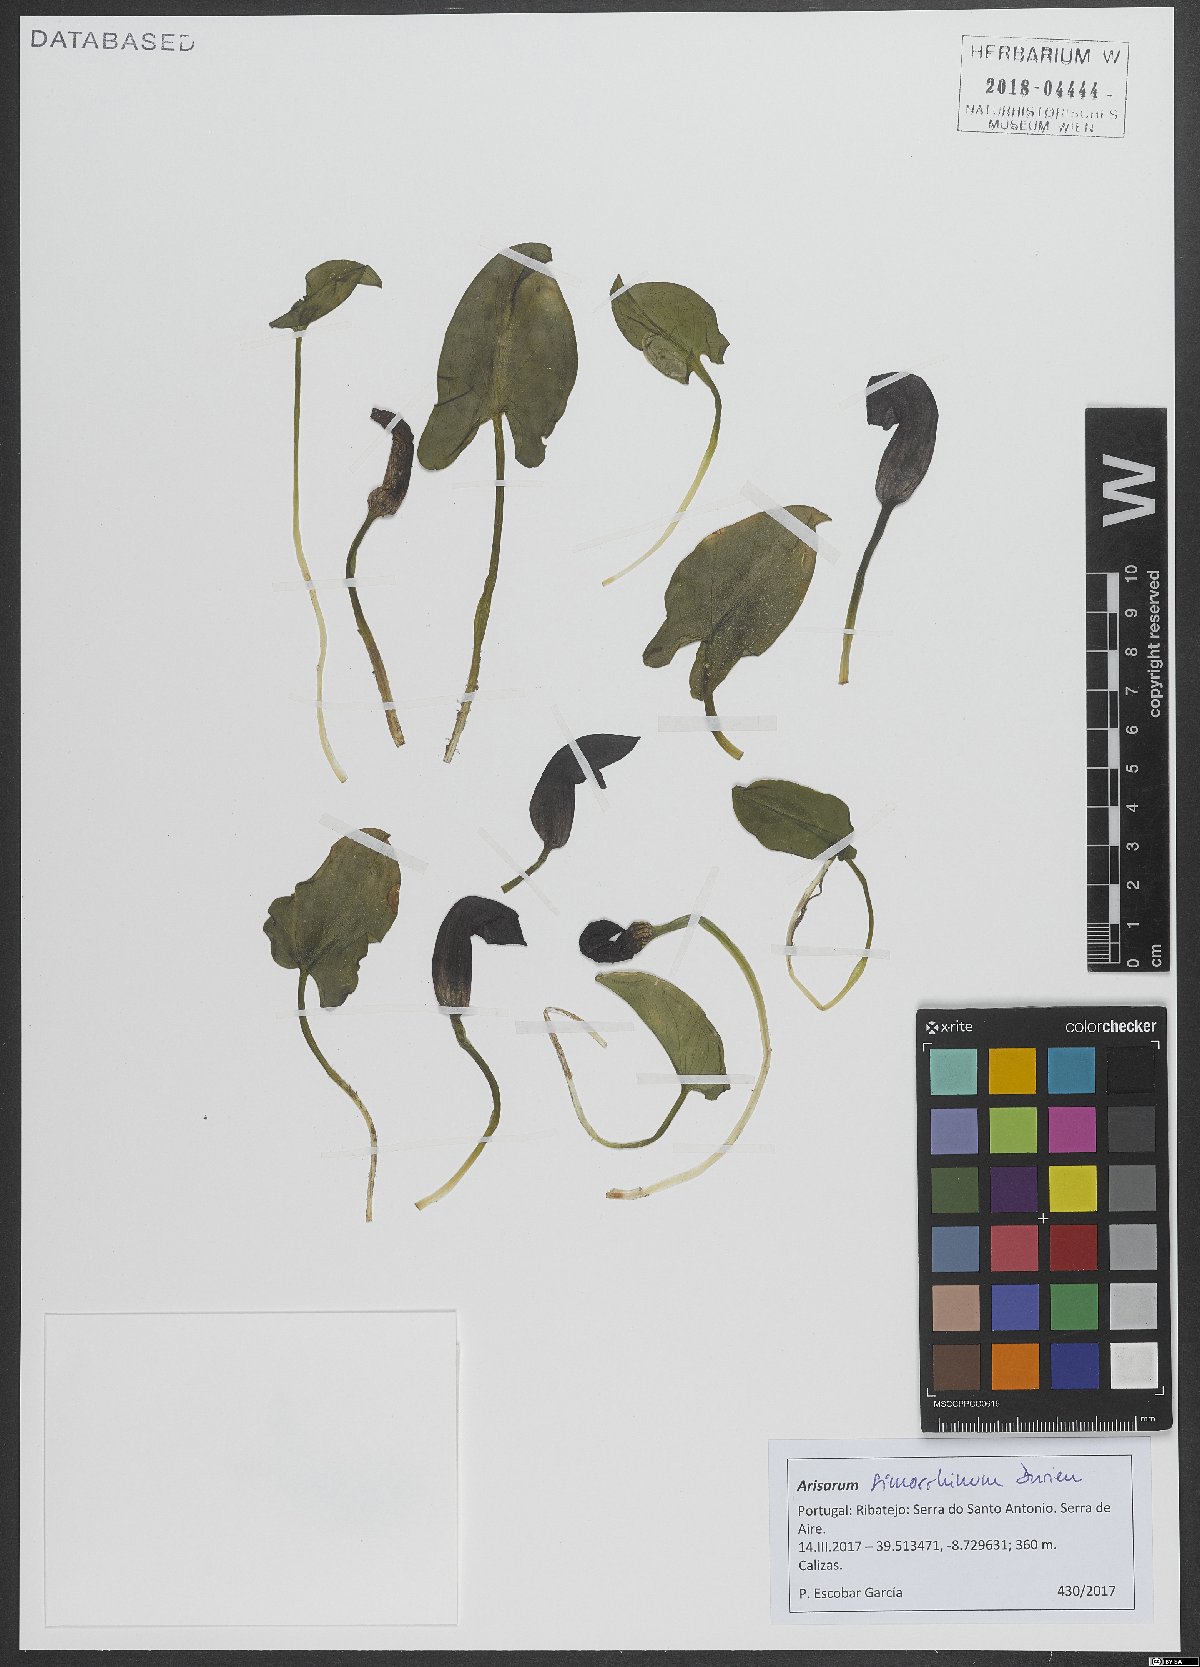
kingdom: Plantae
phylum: Tracheophyta
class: Liliopsida
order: Alismatales
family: Araceae
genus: Arisarum
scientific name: Arisarum simorrhinum
